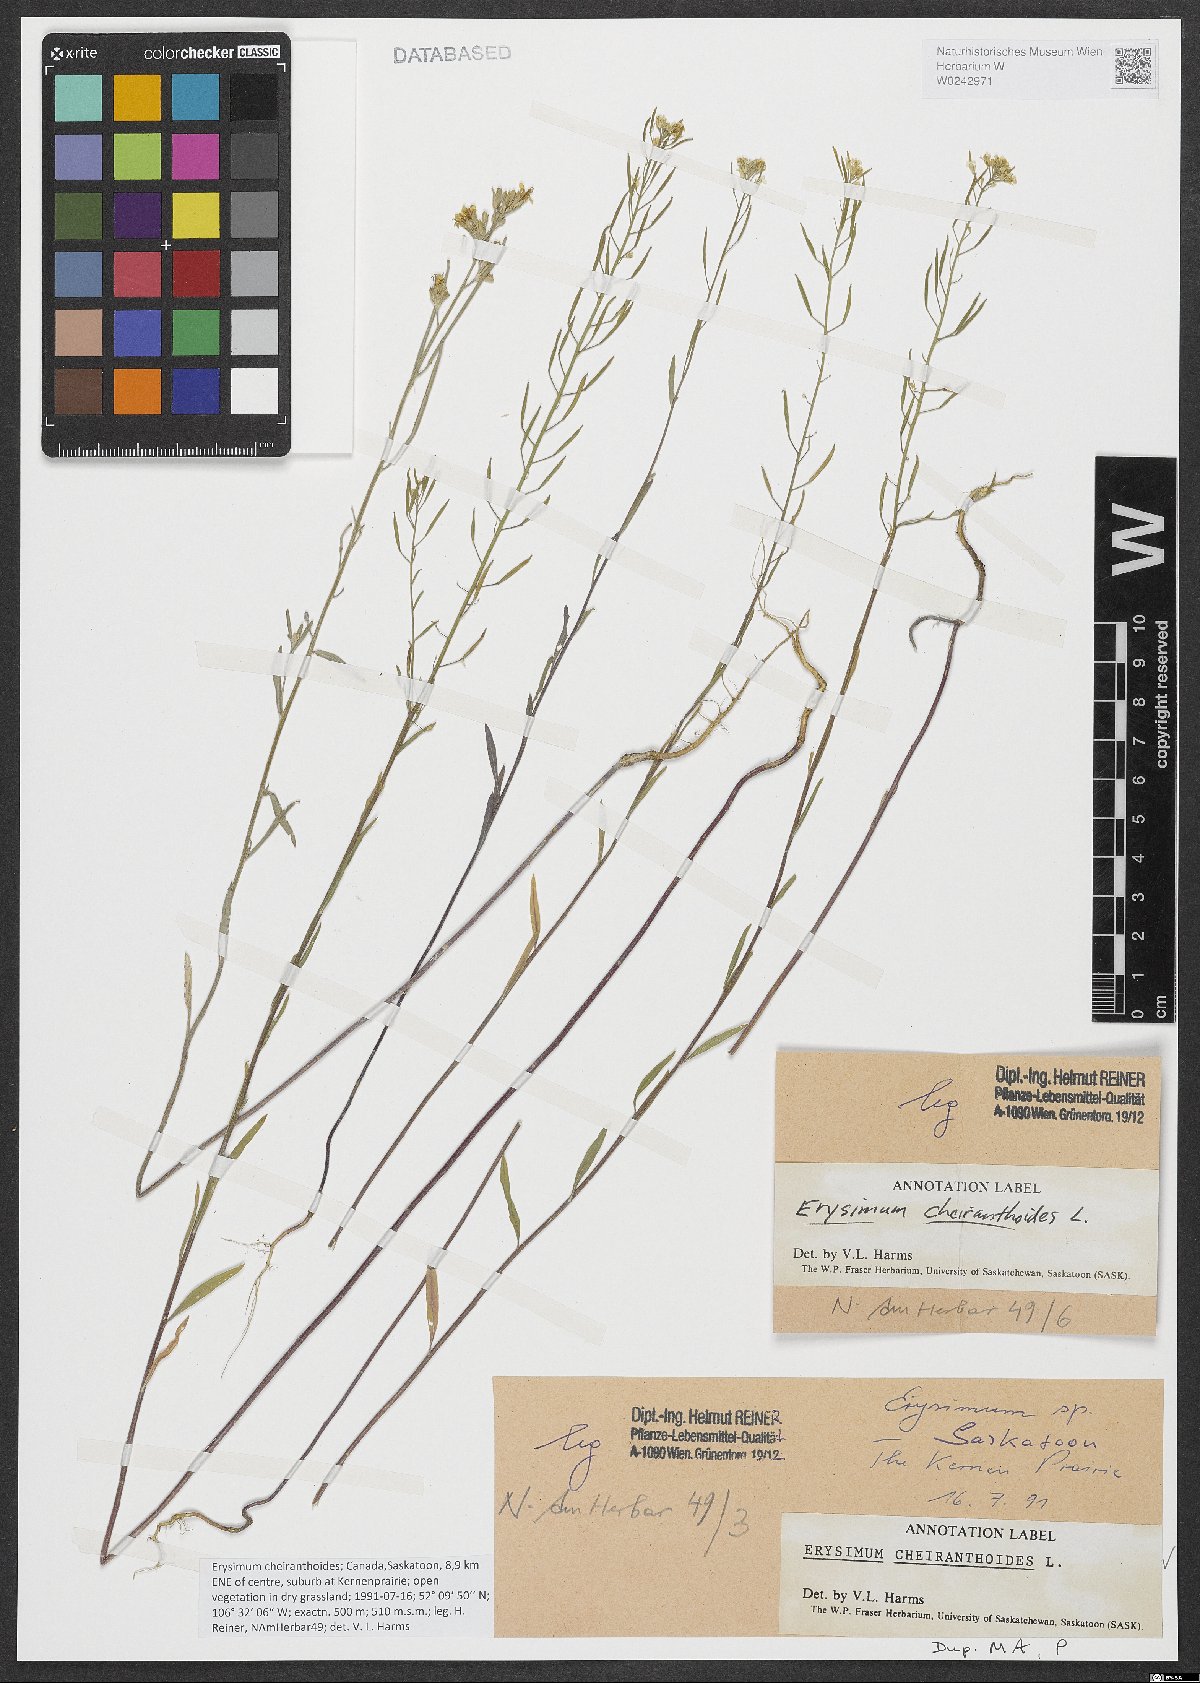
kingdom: Plantae
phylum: Tracheophyta
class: Magnoliopsida
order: Brassicales
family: Brassicaceae
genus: Erysimum
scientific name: Erysimum cheiranthoides
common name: Treacle mustard
